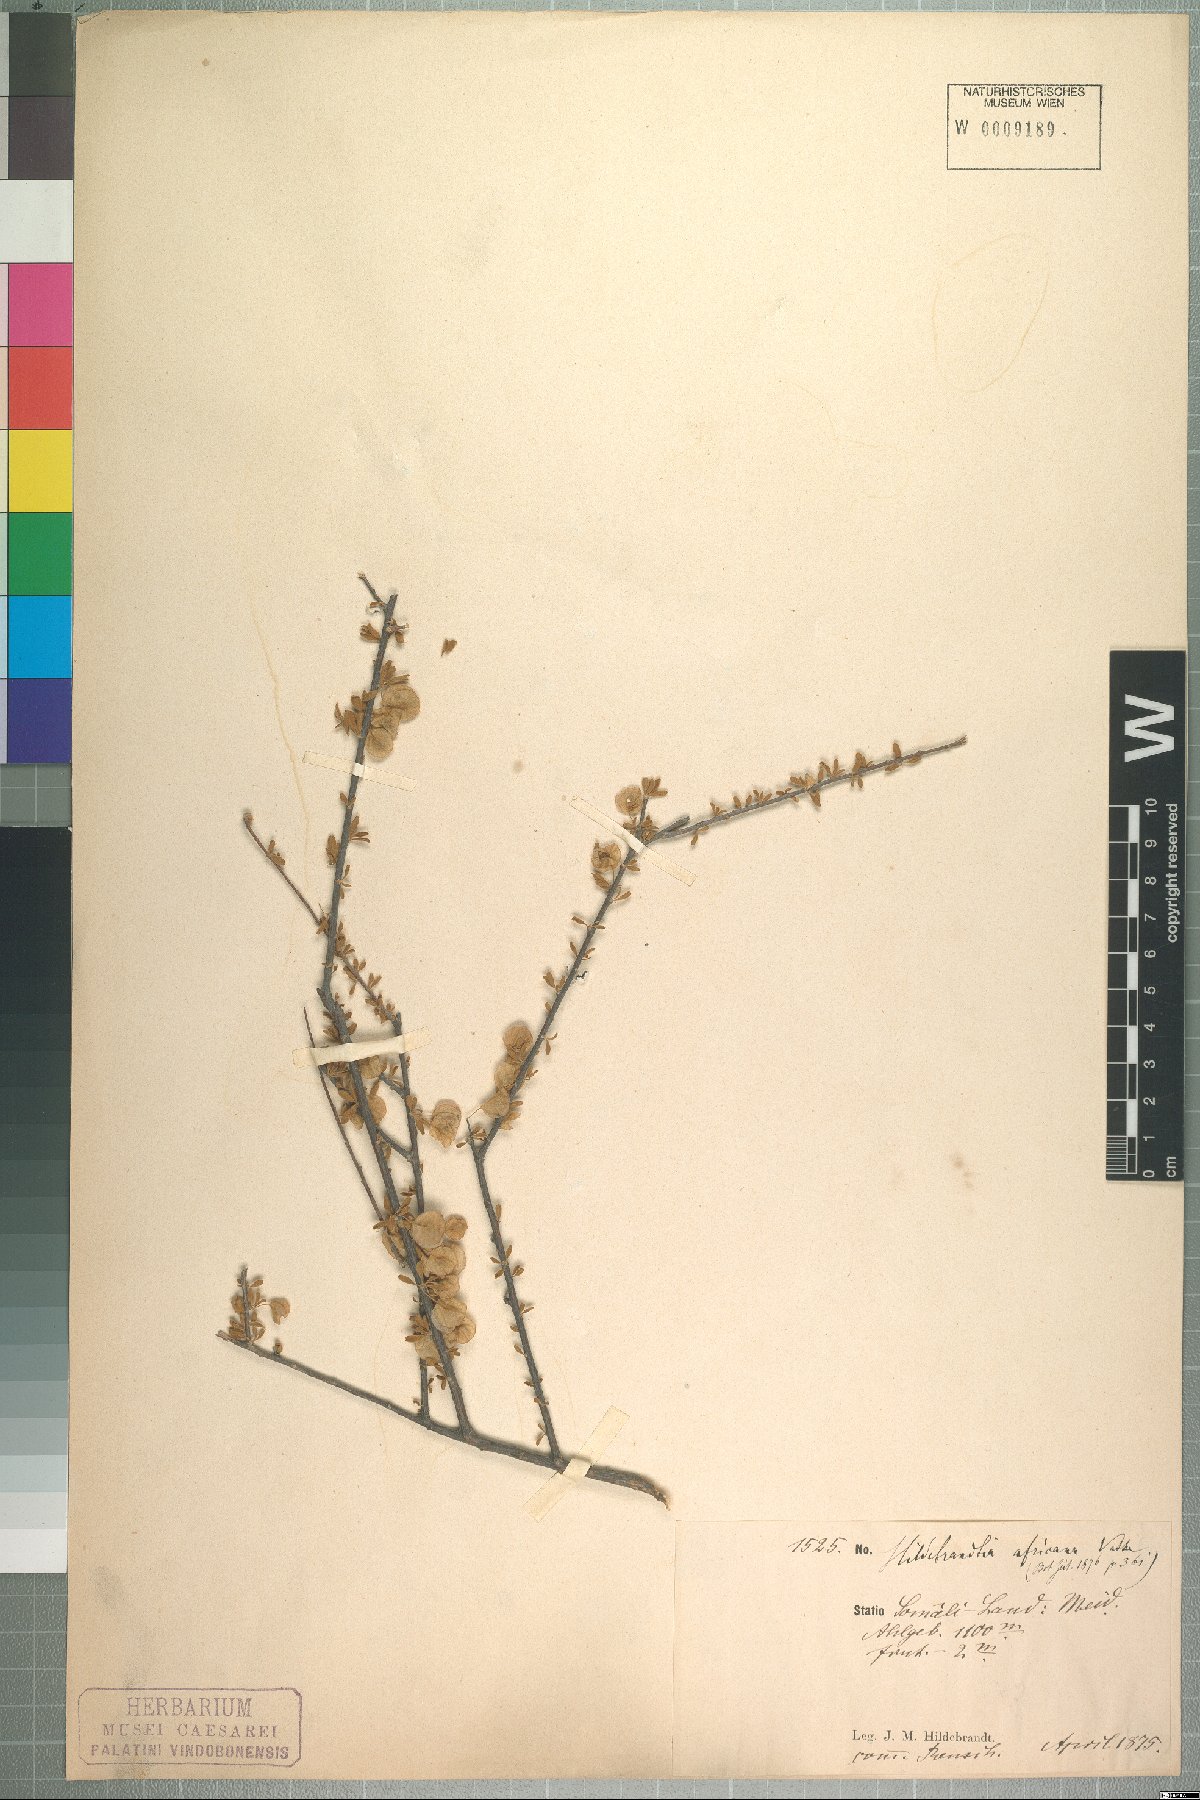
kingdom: Plantae
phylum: Tracheophyta
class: Magnoliopsida
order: Solanales
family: Convolvulaceae
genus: Hildebrandtia
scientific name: Hildebrandtia africana
